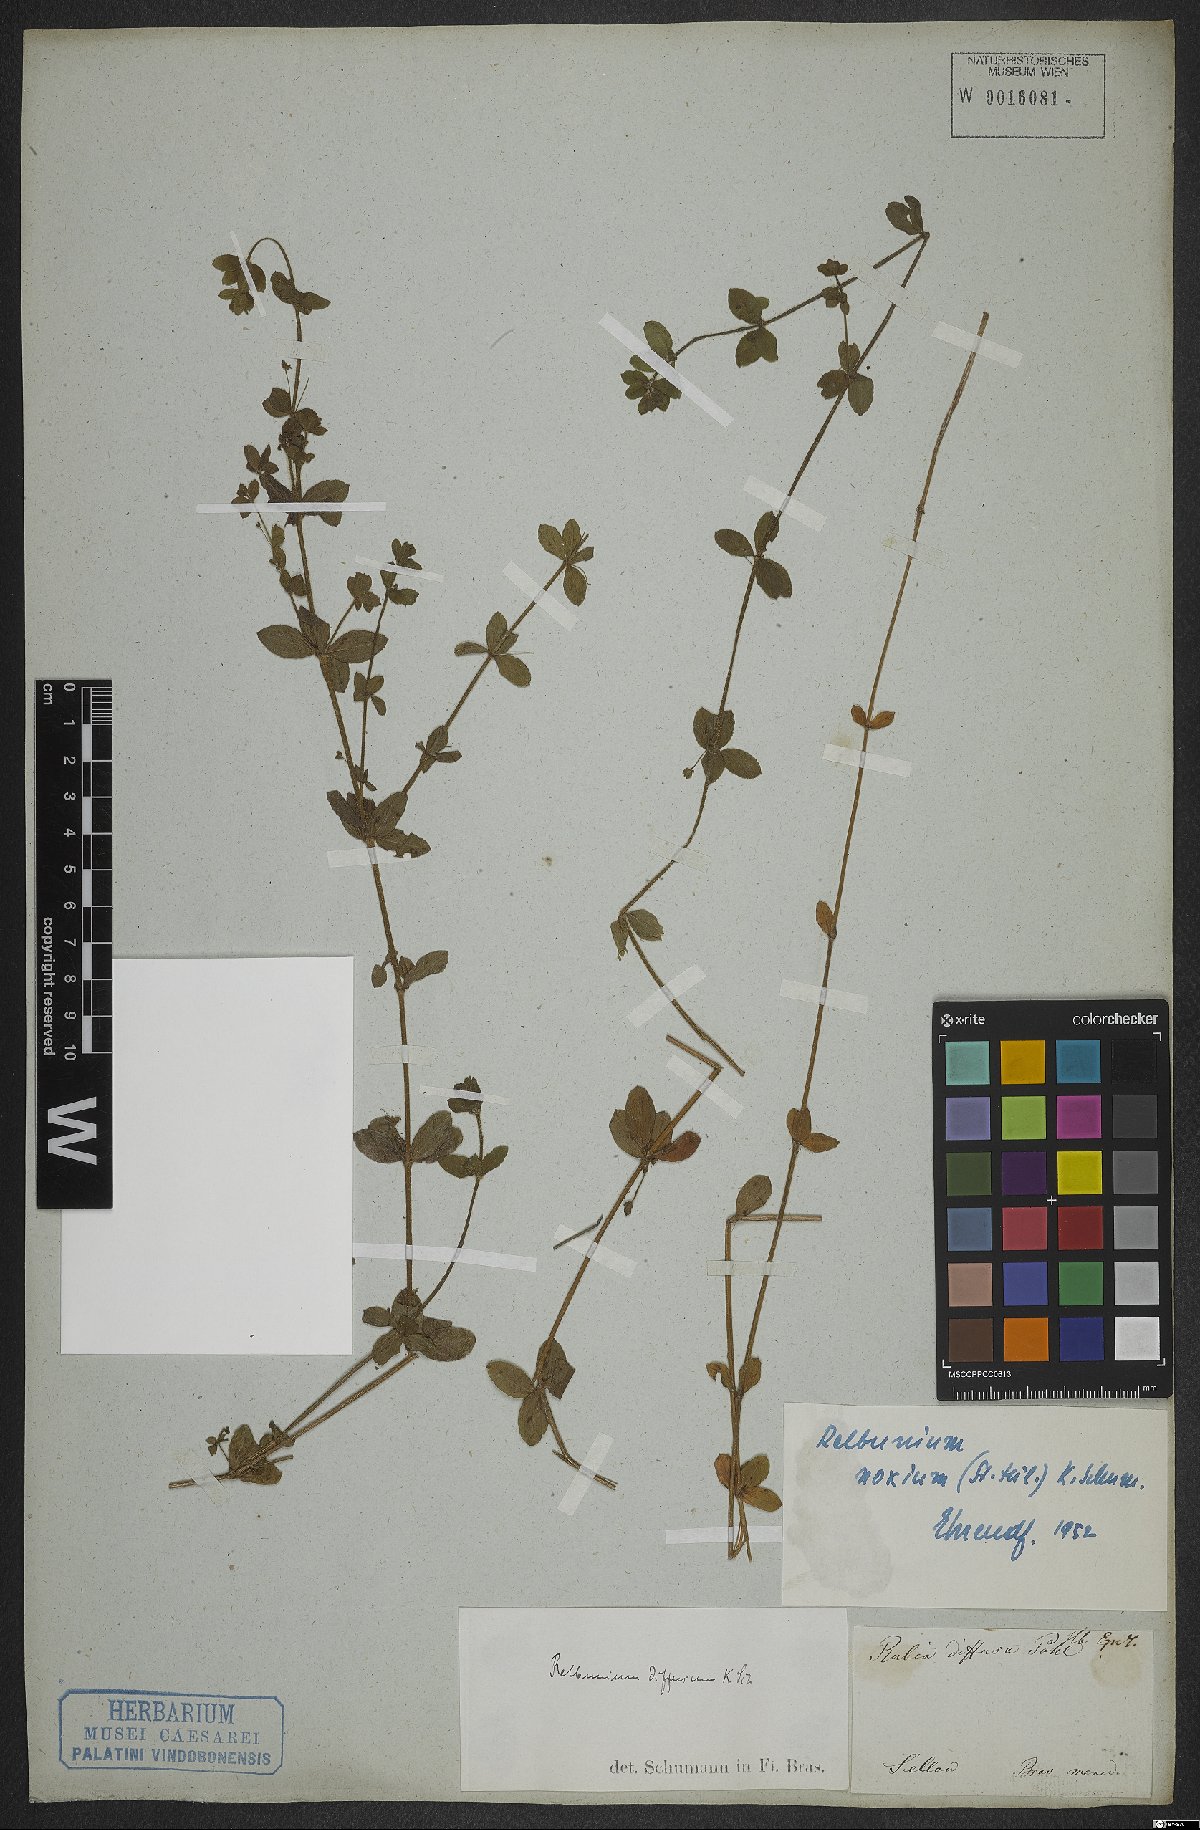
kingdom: Plantae
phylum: Tracheophyta
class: Magnoliopsida
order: Gentianales
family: Rubiaceae
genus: Galium
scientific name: Galium noxium
